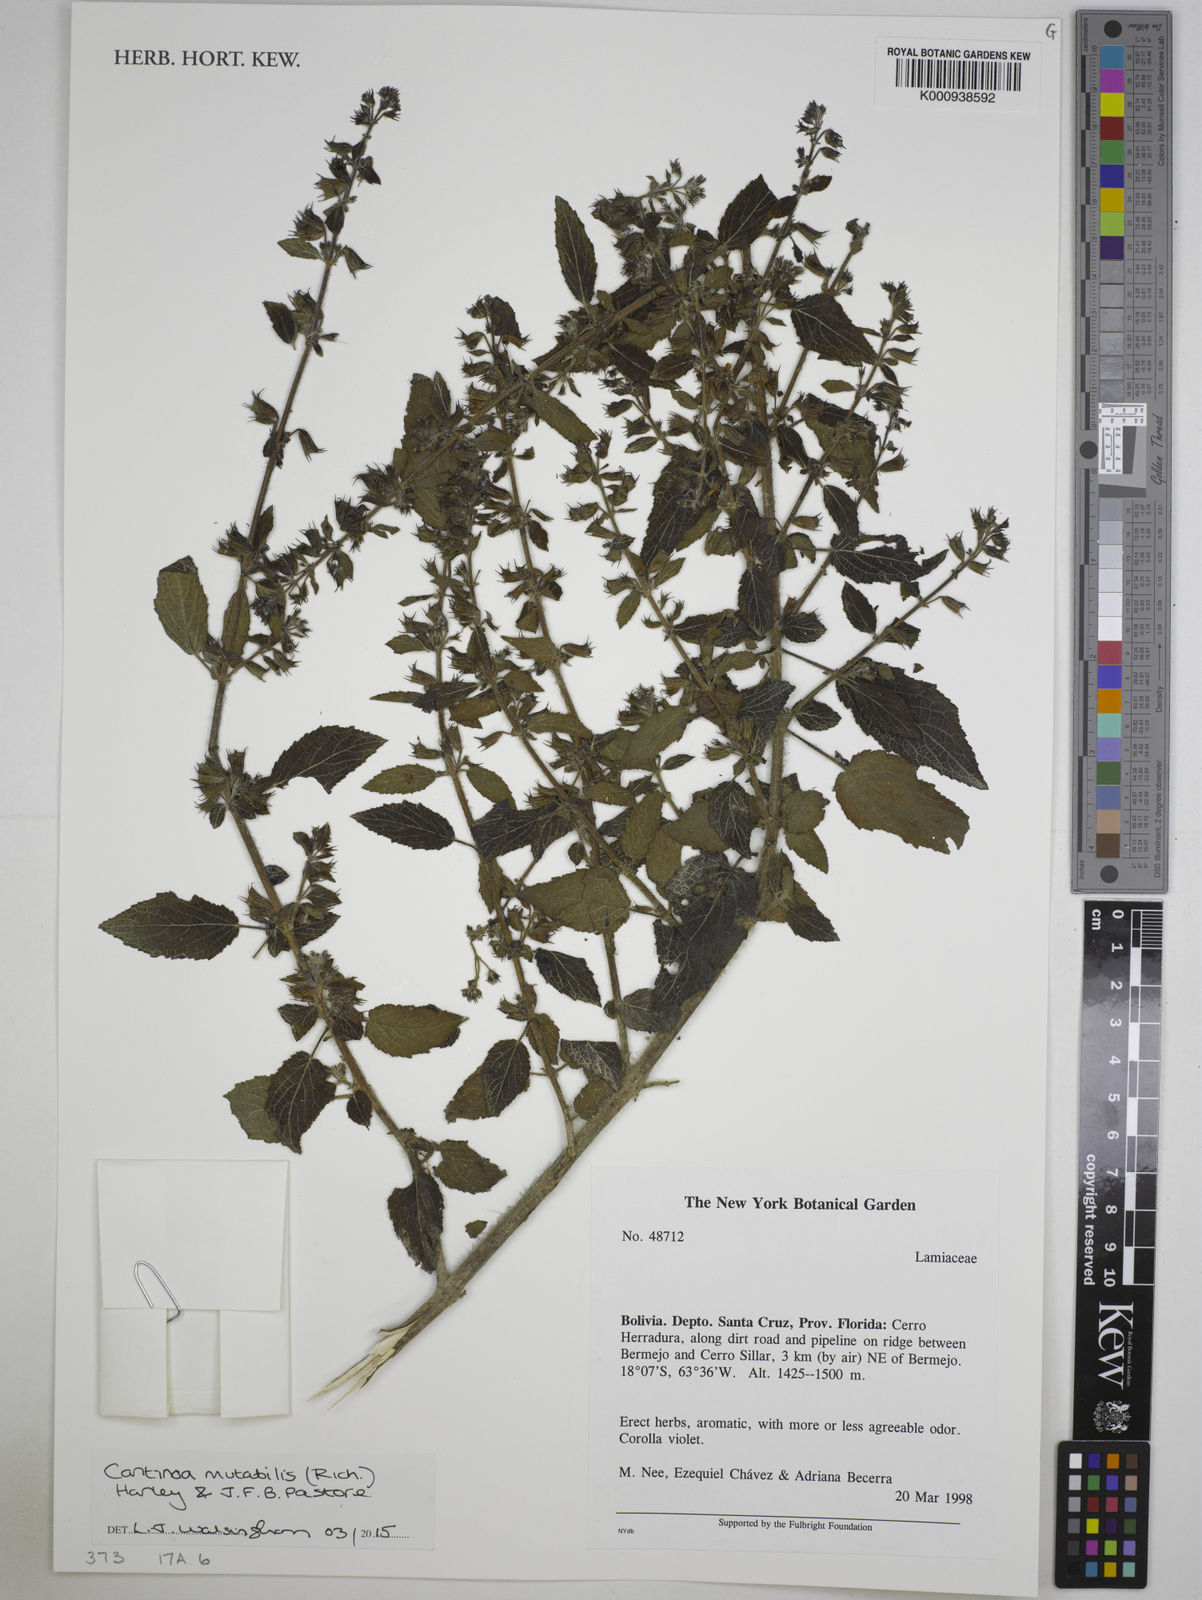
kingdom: Plantae
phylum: Tracheophyta
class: Magnoliopsida
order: Lamiales
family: Lamiaceae
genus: Cantinoa
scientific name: Cantinoa mutabilis
